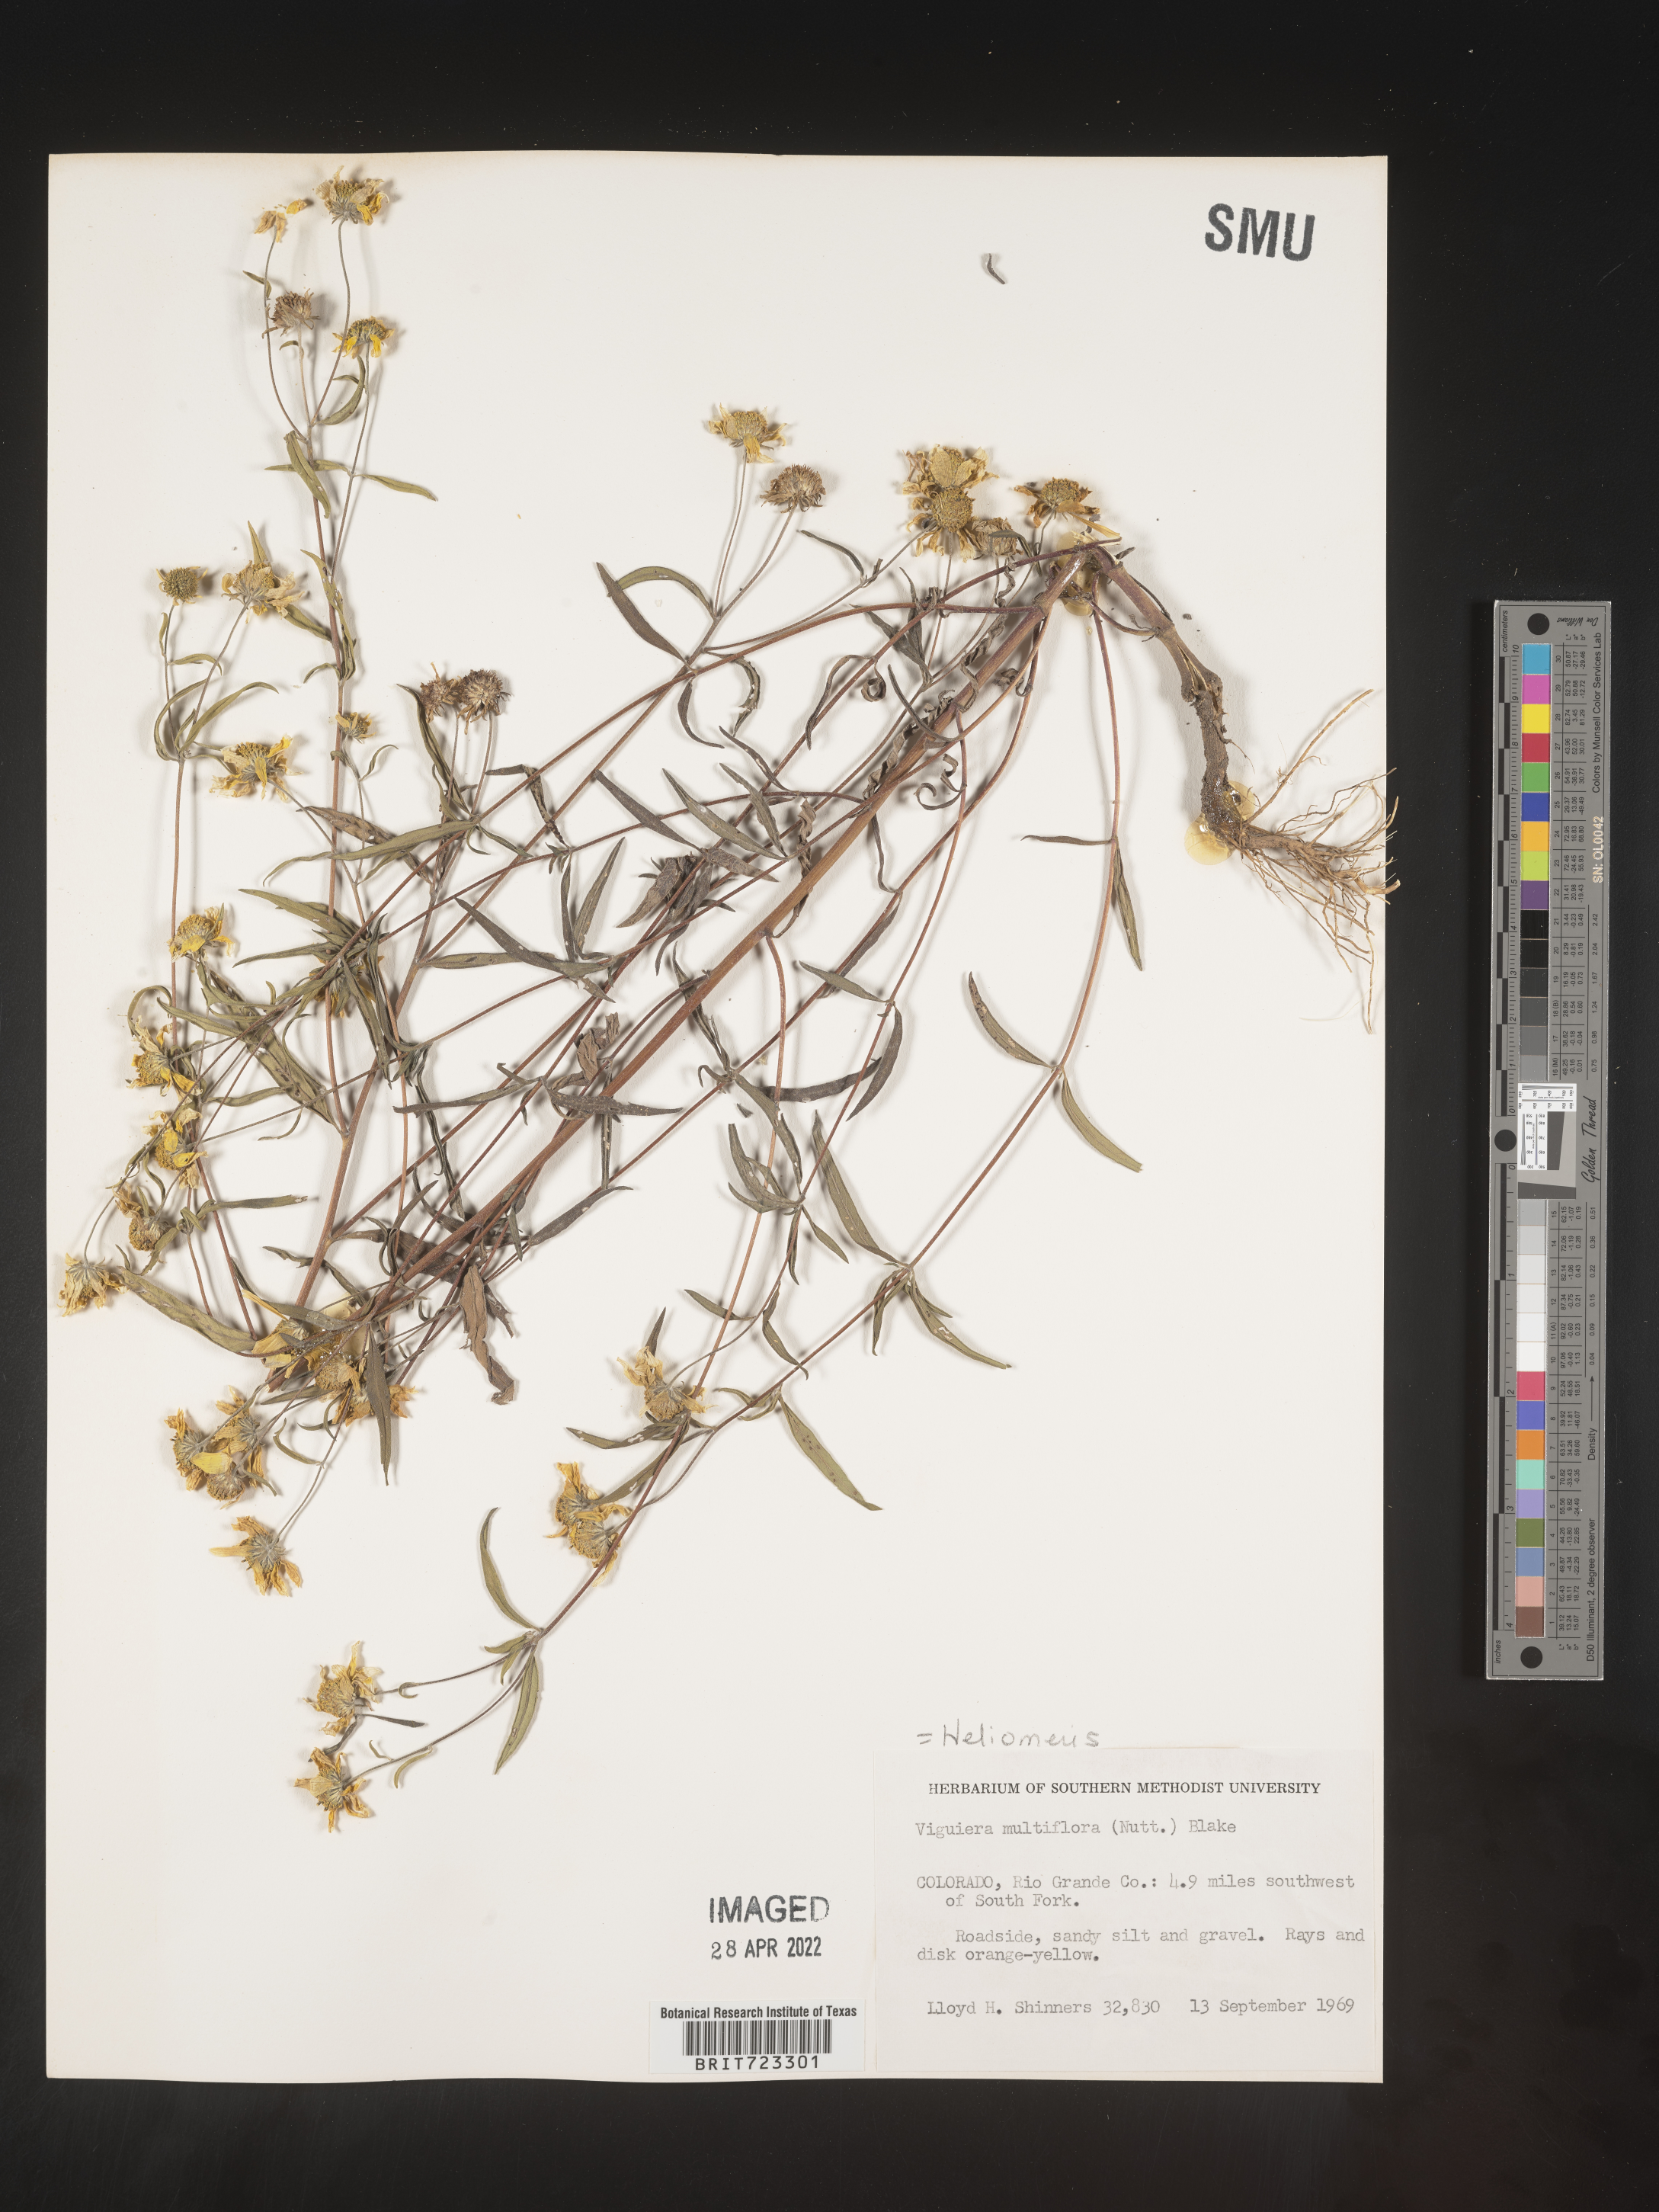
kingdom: Plantae
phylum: Tracheophyta
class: Magnoliopsida
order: Asterales
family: Asteraceae
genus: Heliomeris
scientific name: Heliomeris multiflora
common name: Showy goldeneye
